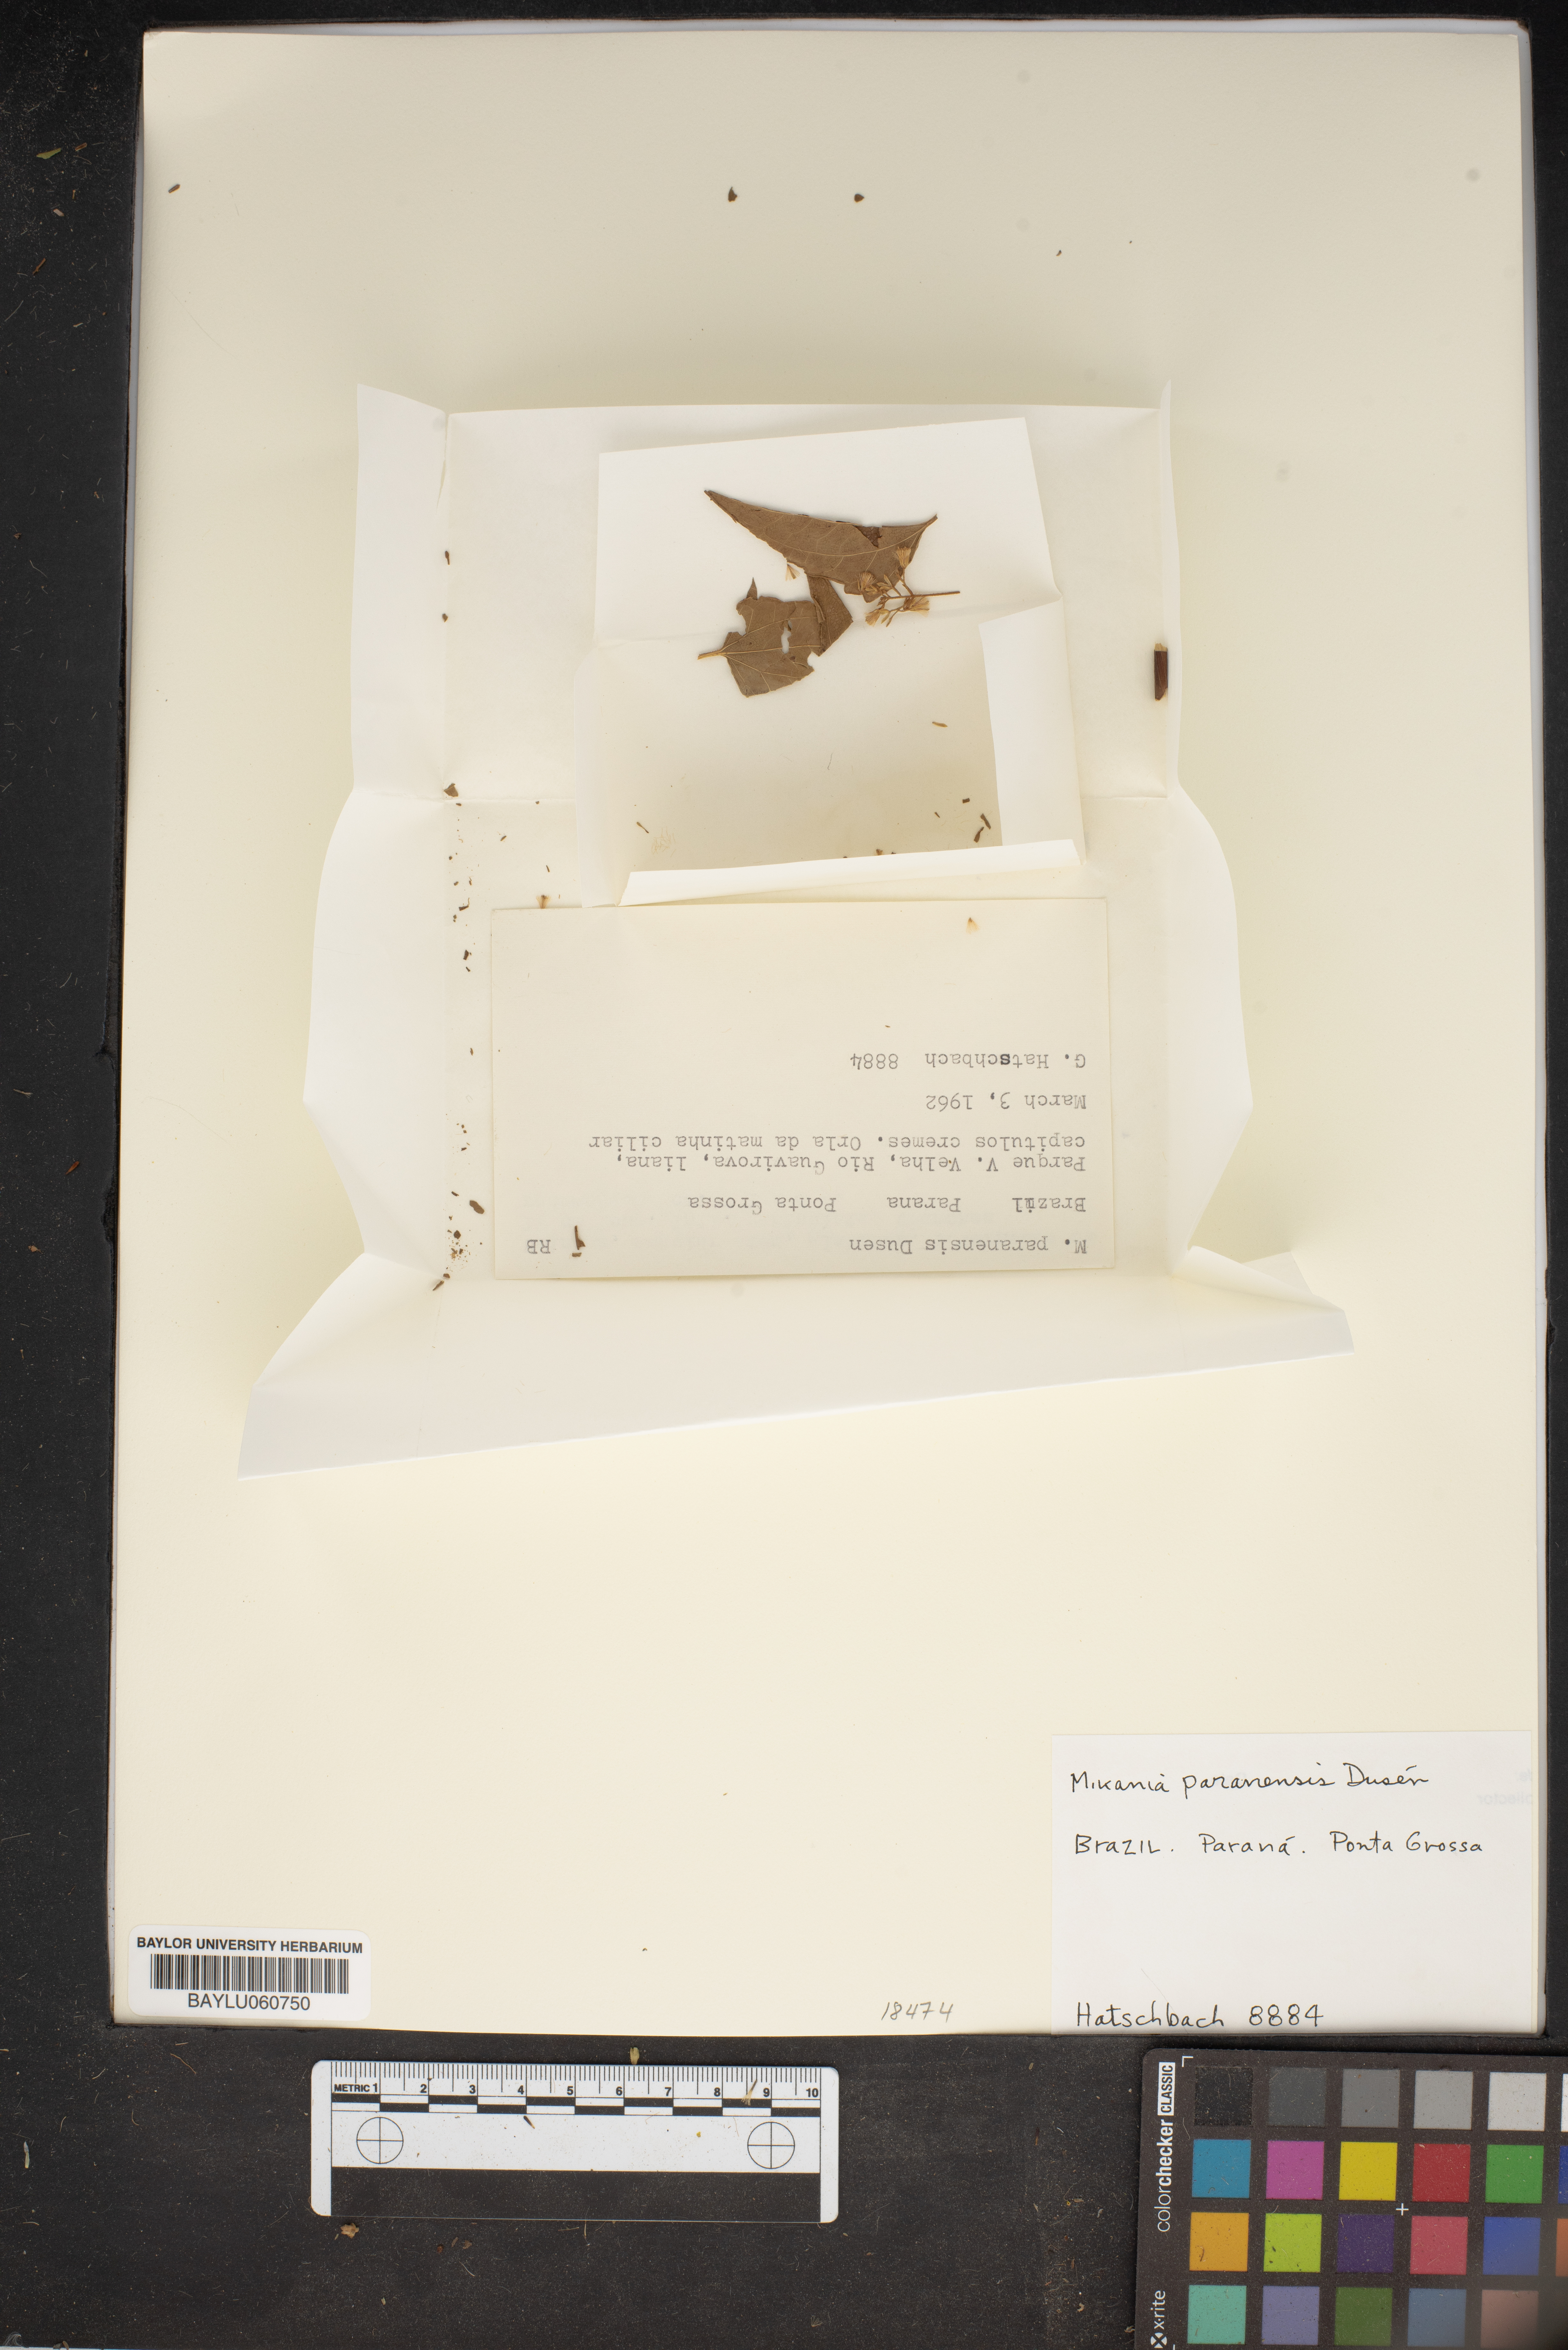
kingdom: Plantae
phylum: Tracheophyta
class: Magnoliopsida
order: Asterales
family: Asteraceae
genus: Mikania
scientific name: Mikania paranensis
